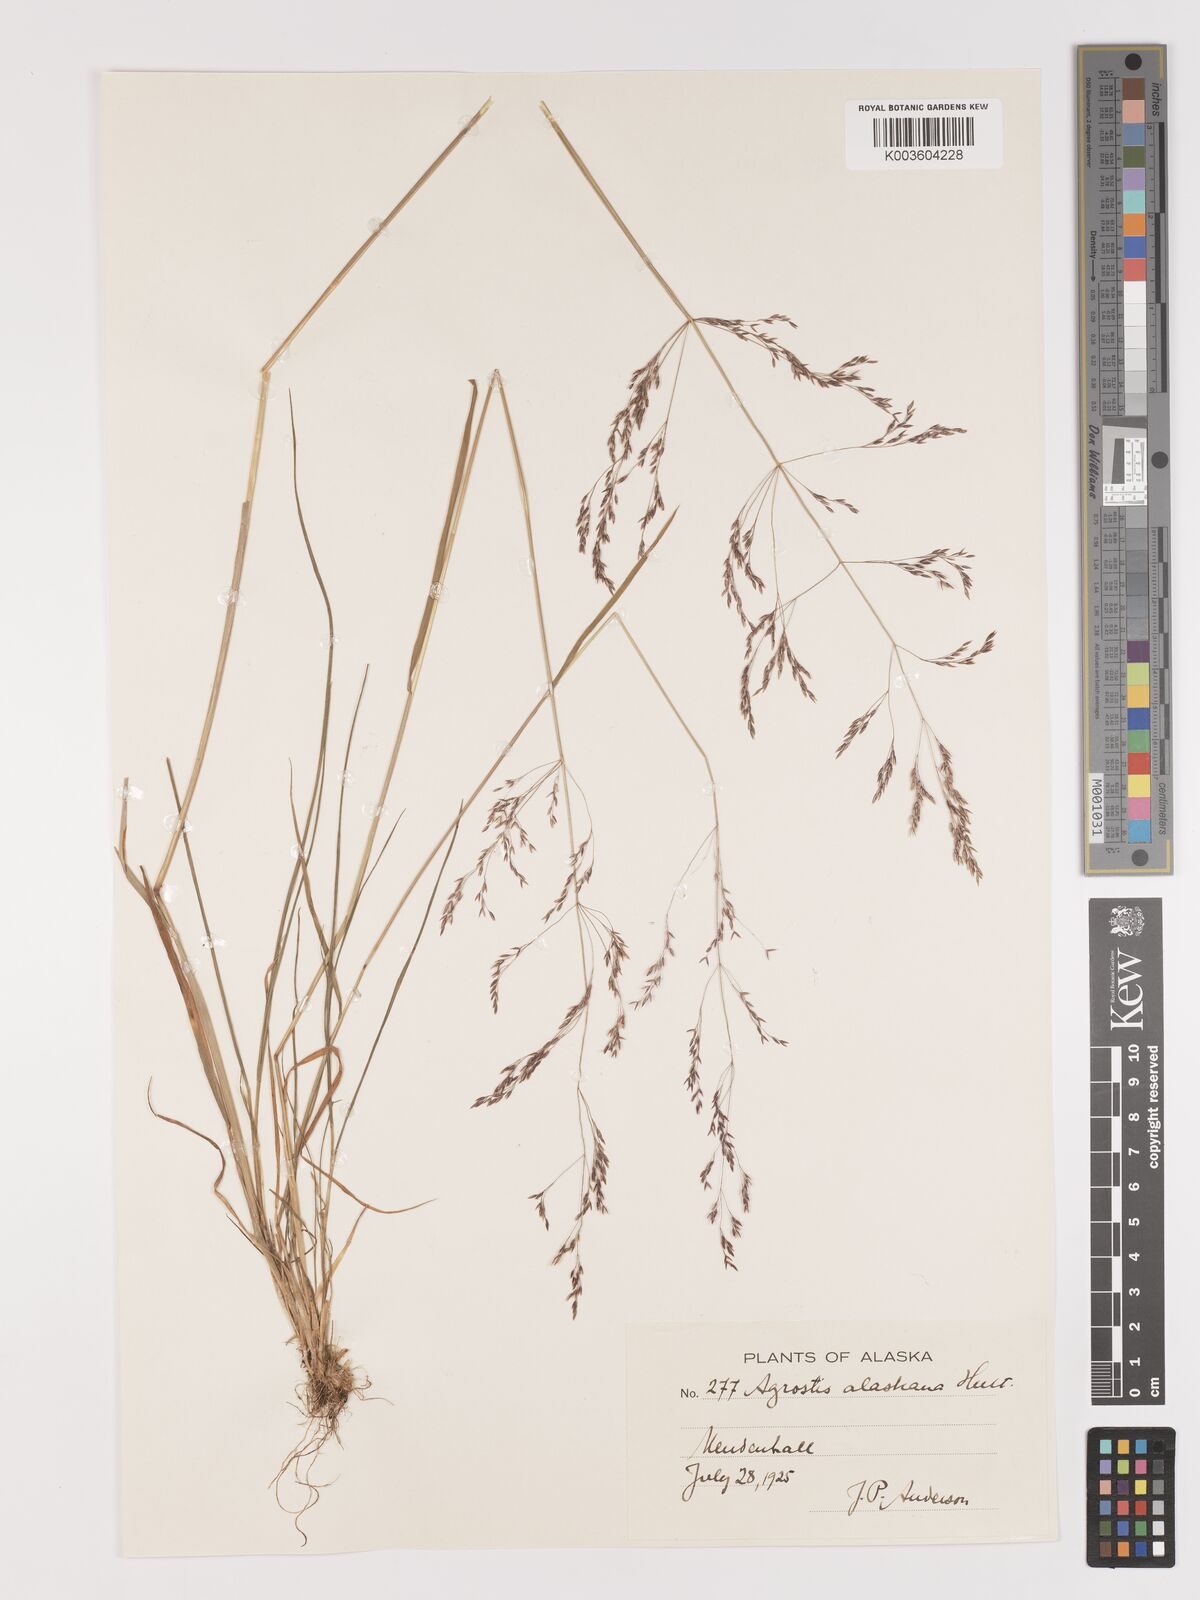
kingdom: Plantae
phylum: Tracheophyta
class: Liliopsida
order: Poales
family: Poaceae
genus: Agrostis
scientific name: Agrostis exarata
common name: Spike bent
